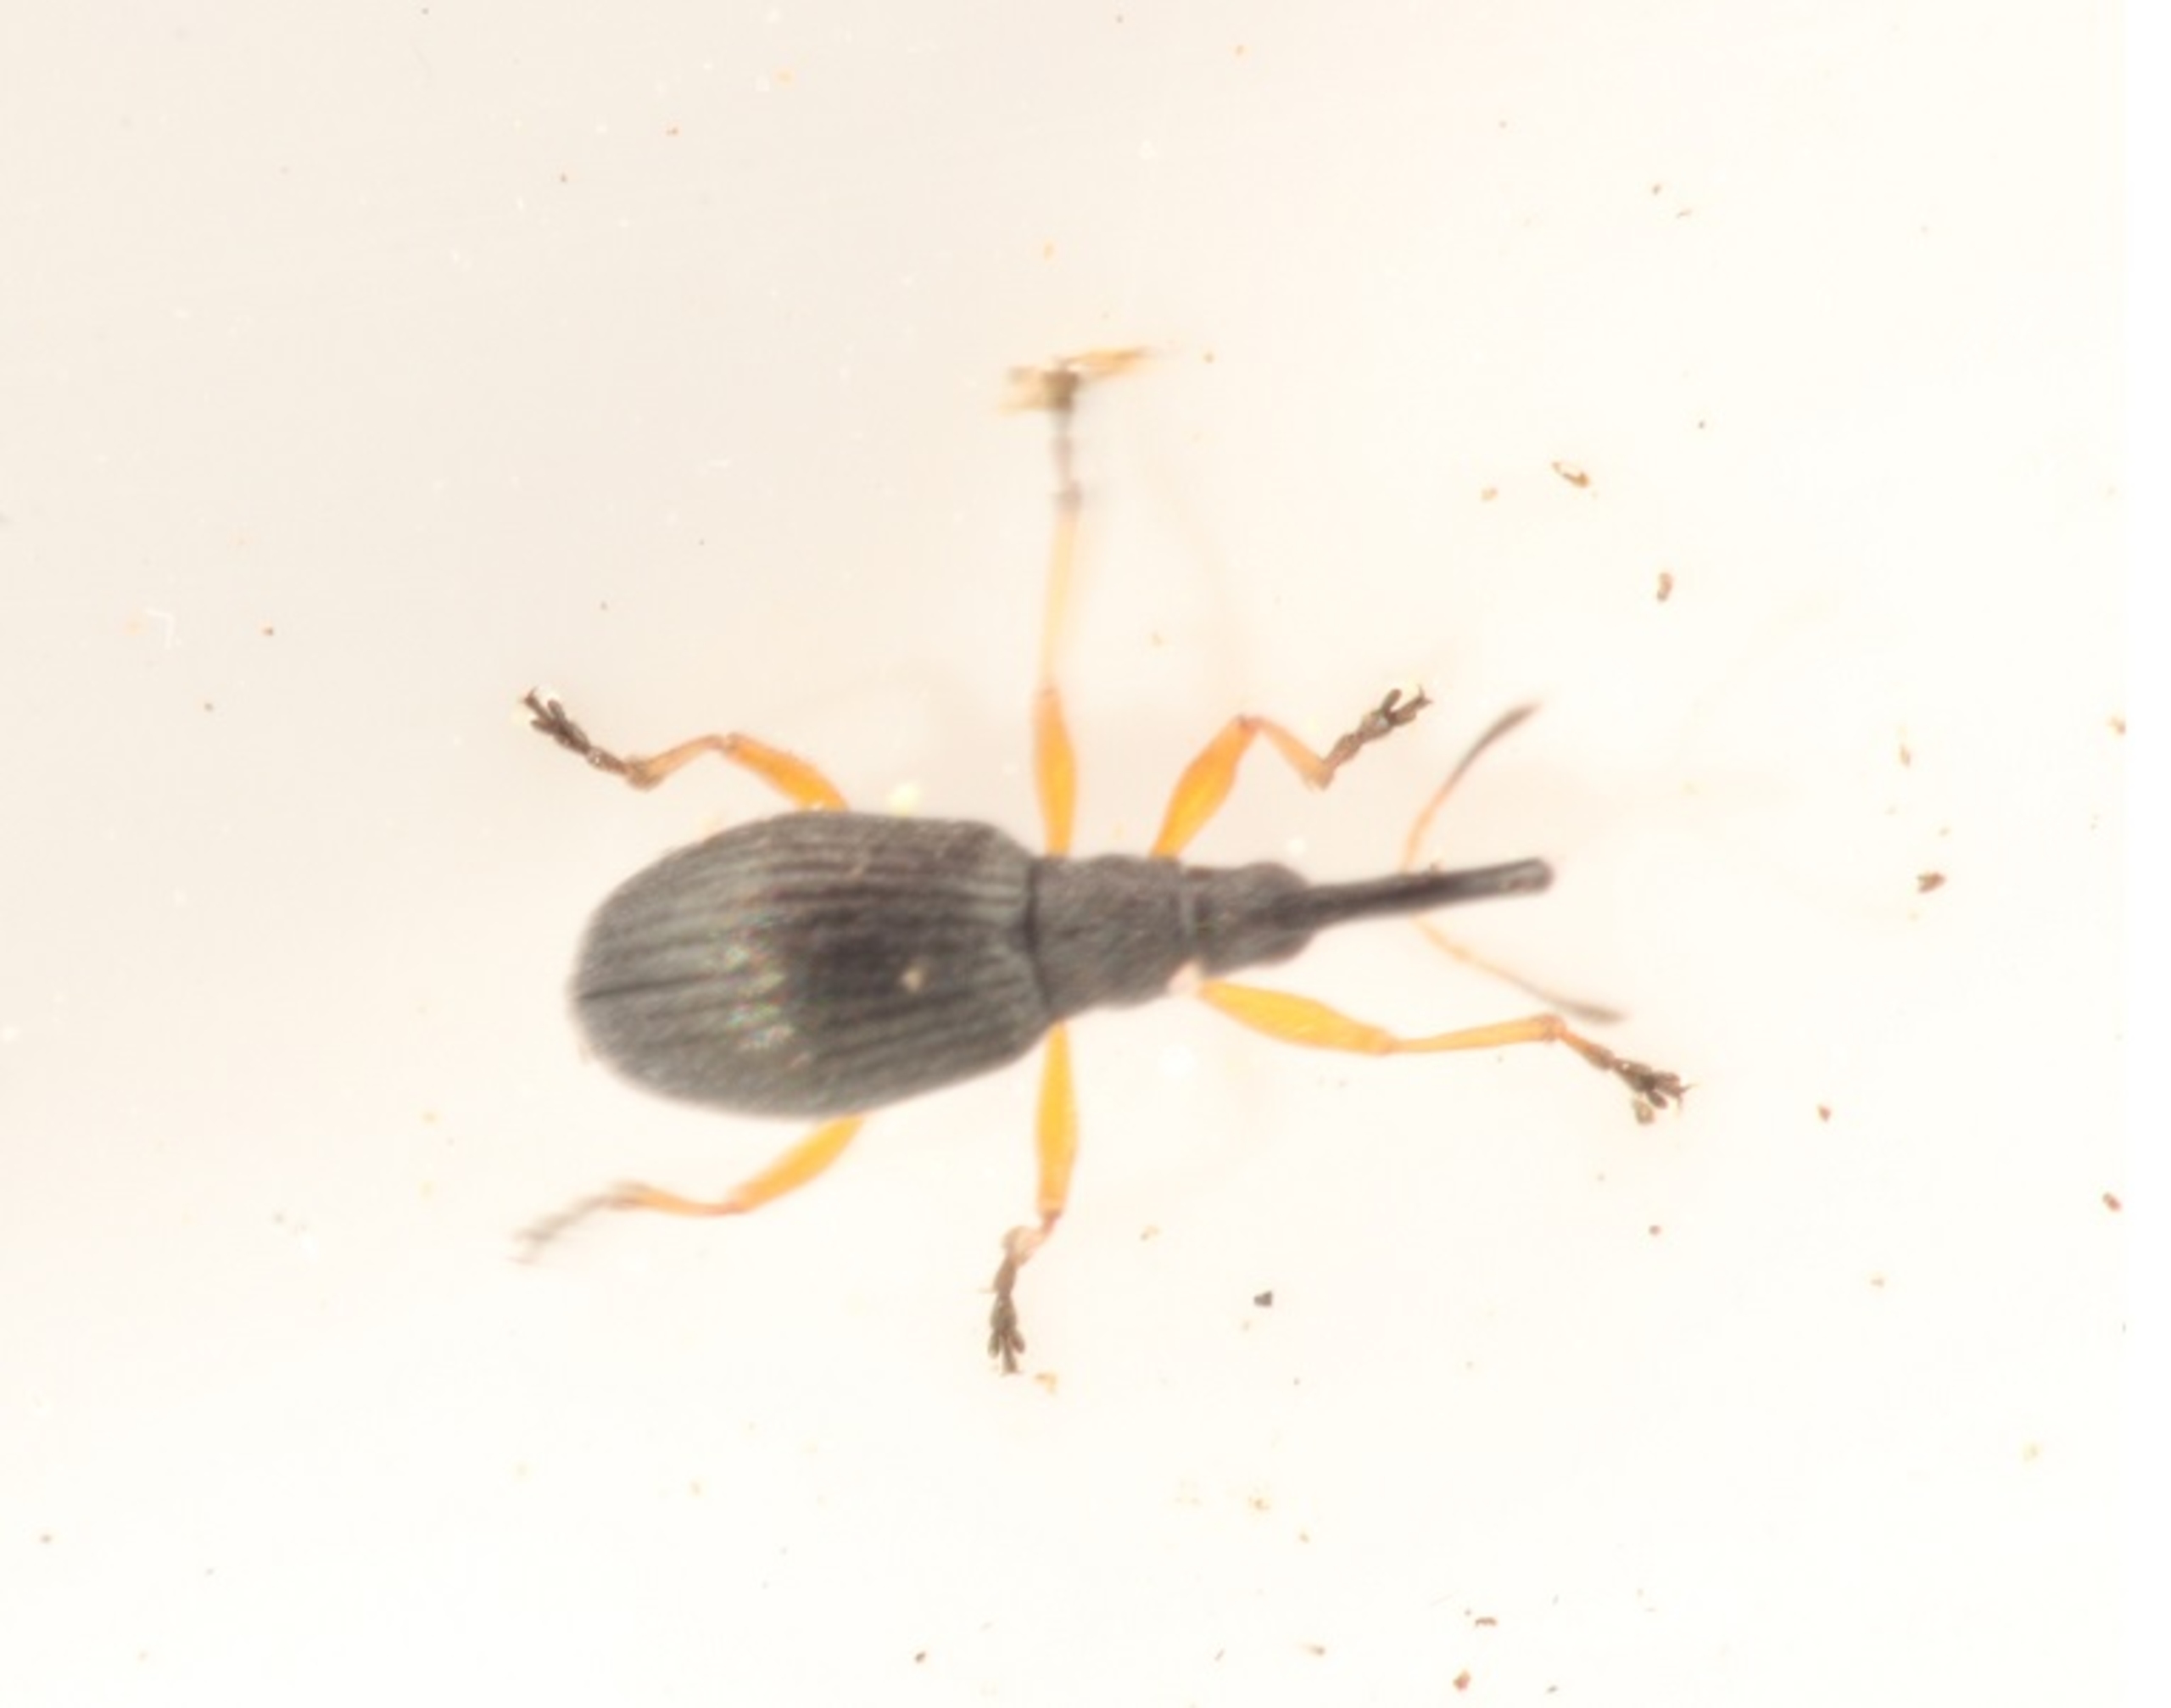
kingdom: Animalia
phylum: Arthropoda
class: Insecta
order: Coleoptera
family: Apionidae
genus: Protapion
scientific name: Protapion fulvipes
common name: Hvidkløversnudebille
